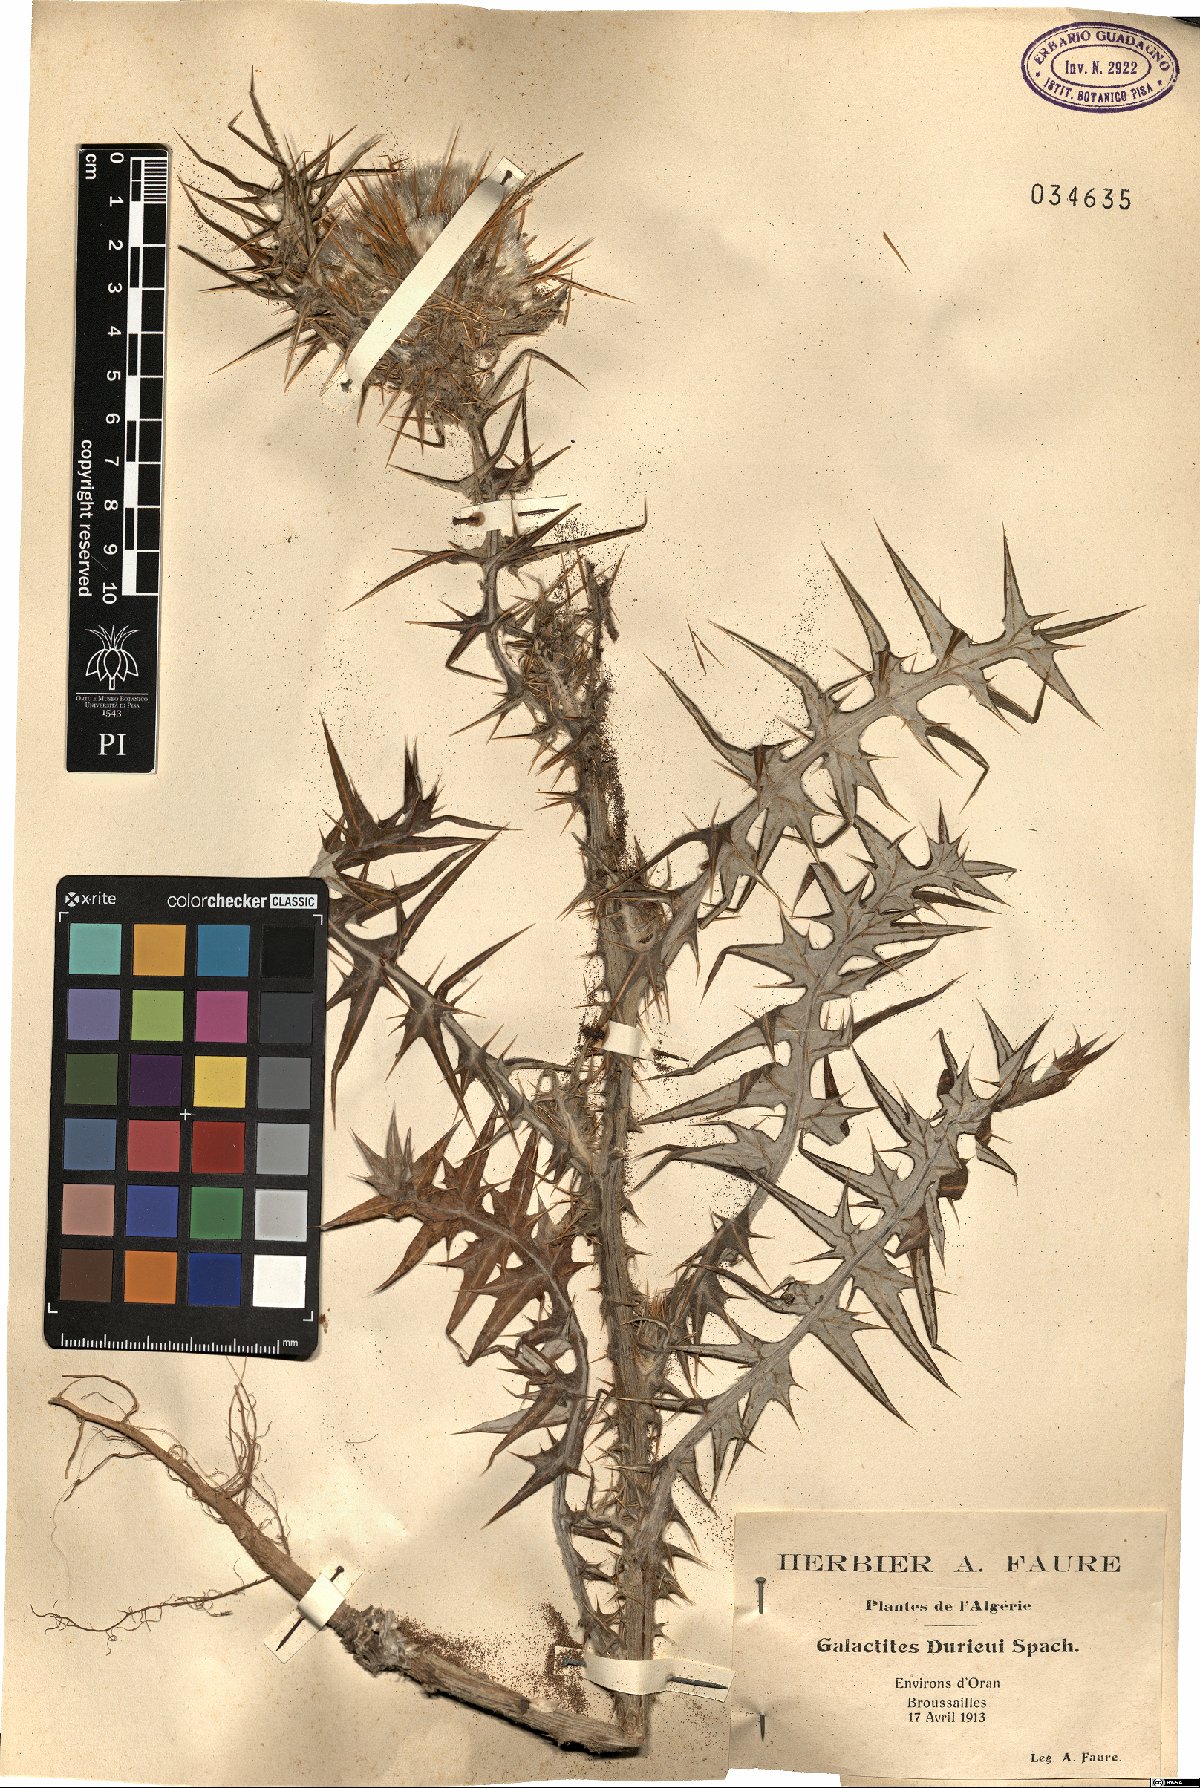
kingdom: Plantae
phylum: Tracheophyta
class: Magnoliopsida
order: Asterales
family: Asteraceae
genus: Galactites
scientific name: Galactites duriaei
